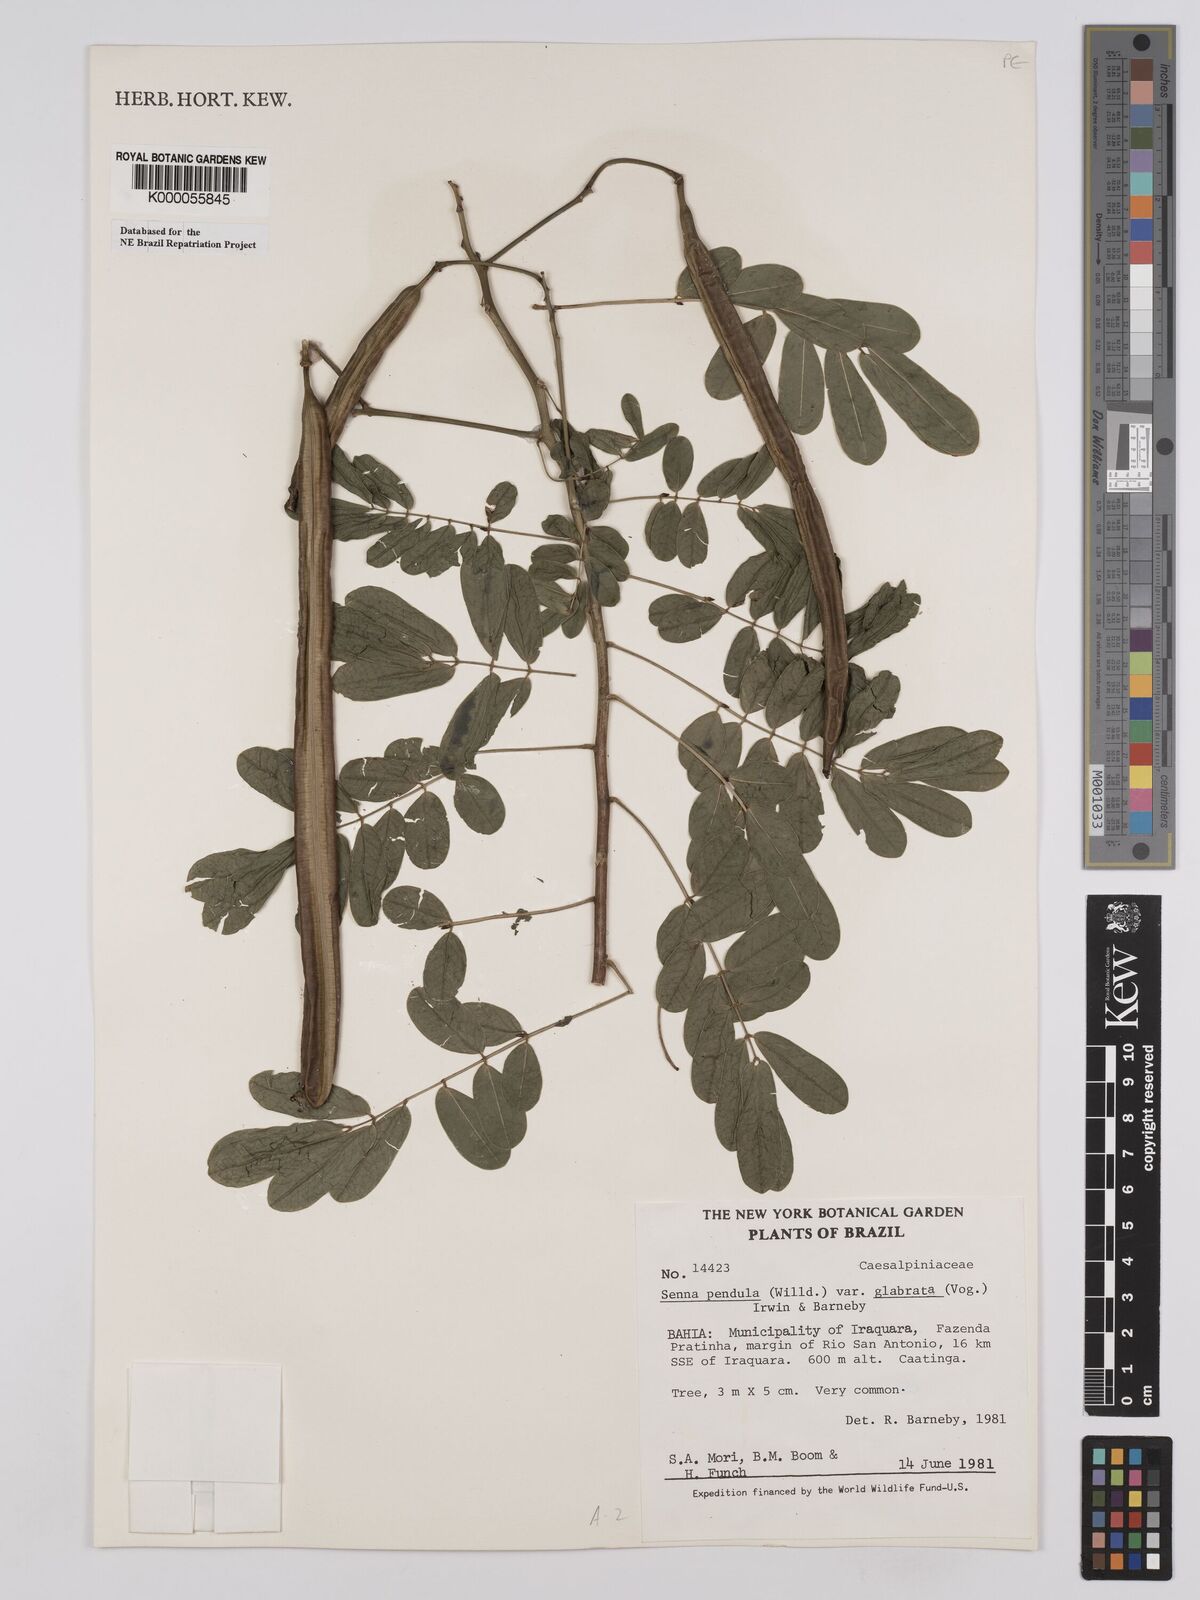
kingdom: Plantae
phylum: Tracheophyta
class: Magnoliopsida
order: Fabales
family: Fabaceae
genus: Senna
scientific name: Senna pendula
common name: Easter cassia
